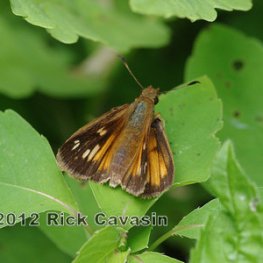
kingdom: Animalia
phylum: Arthropoda
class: Insecta
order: Lepidoptera
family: Hesperiidae
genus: Poanes
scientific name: Poanes viator
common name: Broad-winged Skipper
